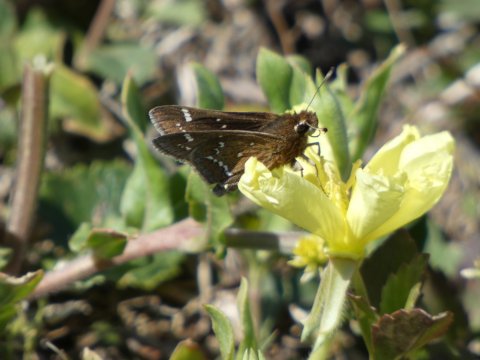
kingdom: Animalia
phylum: Arthropoda
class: Insecta
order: Lepidoptera
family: Hesperiidae
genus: Atrytonopsis
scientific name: Atrytonopsis quinteri
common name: Crystal Skipper
